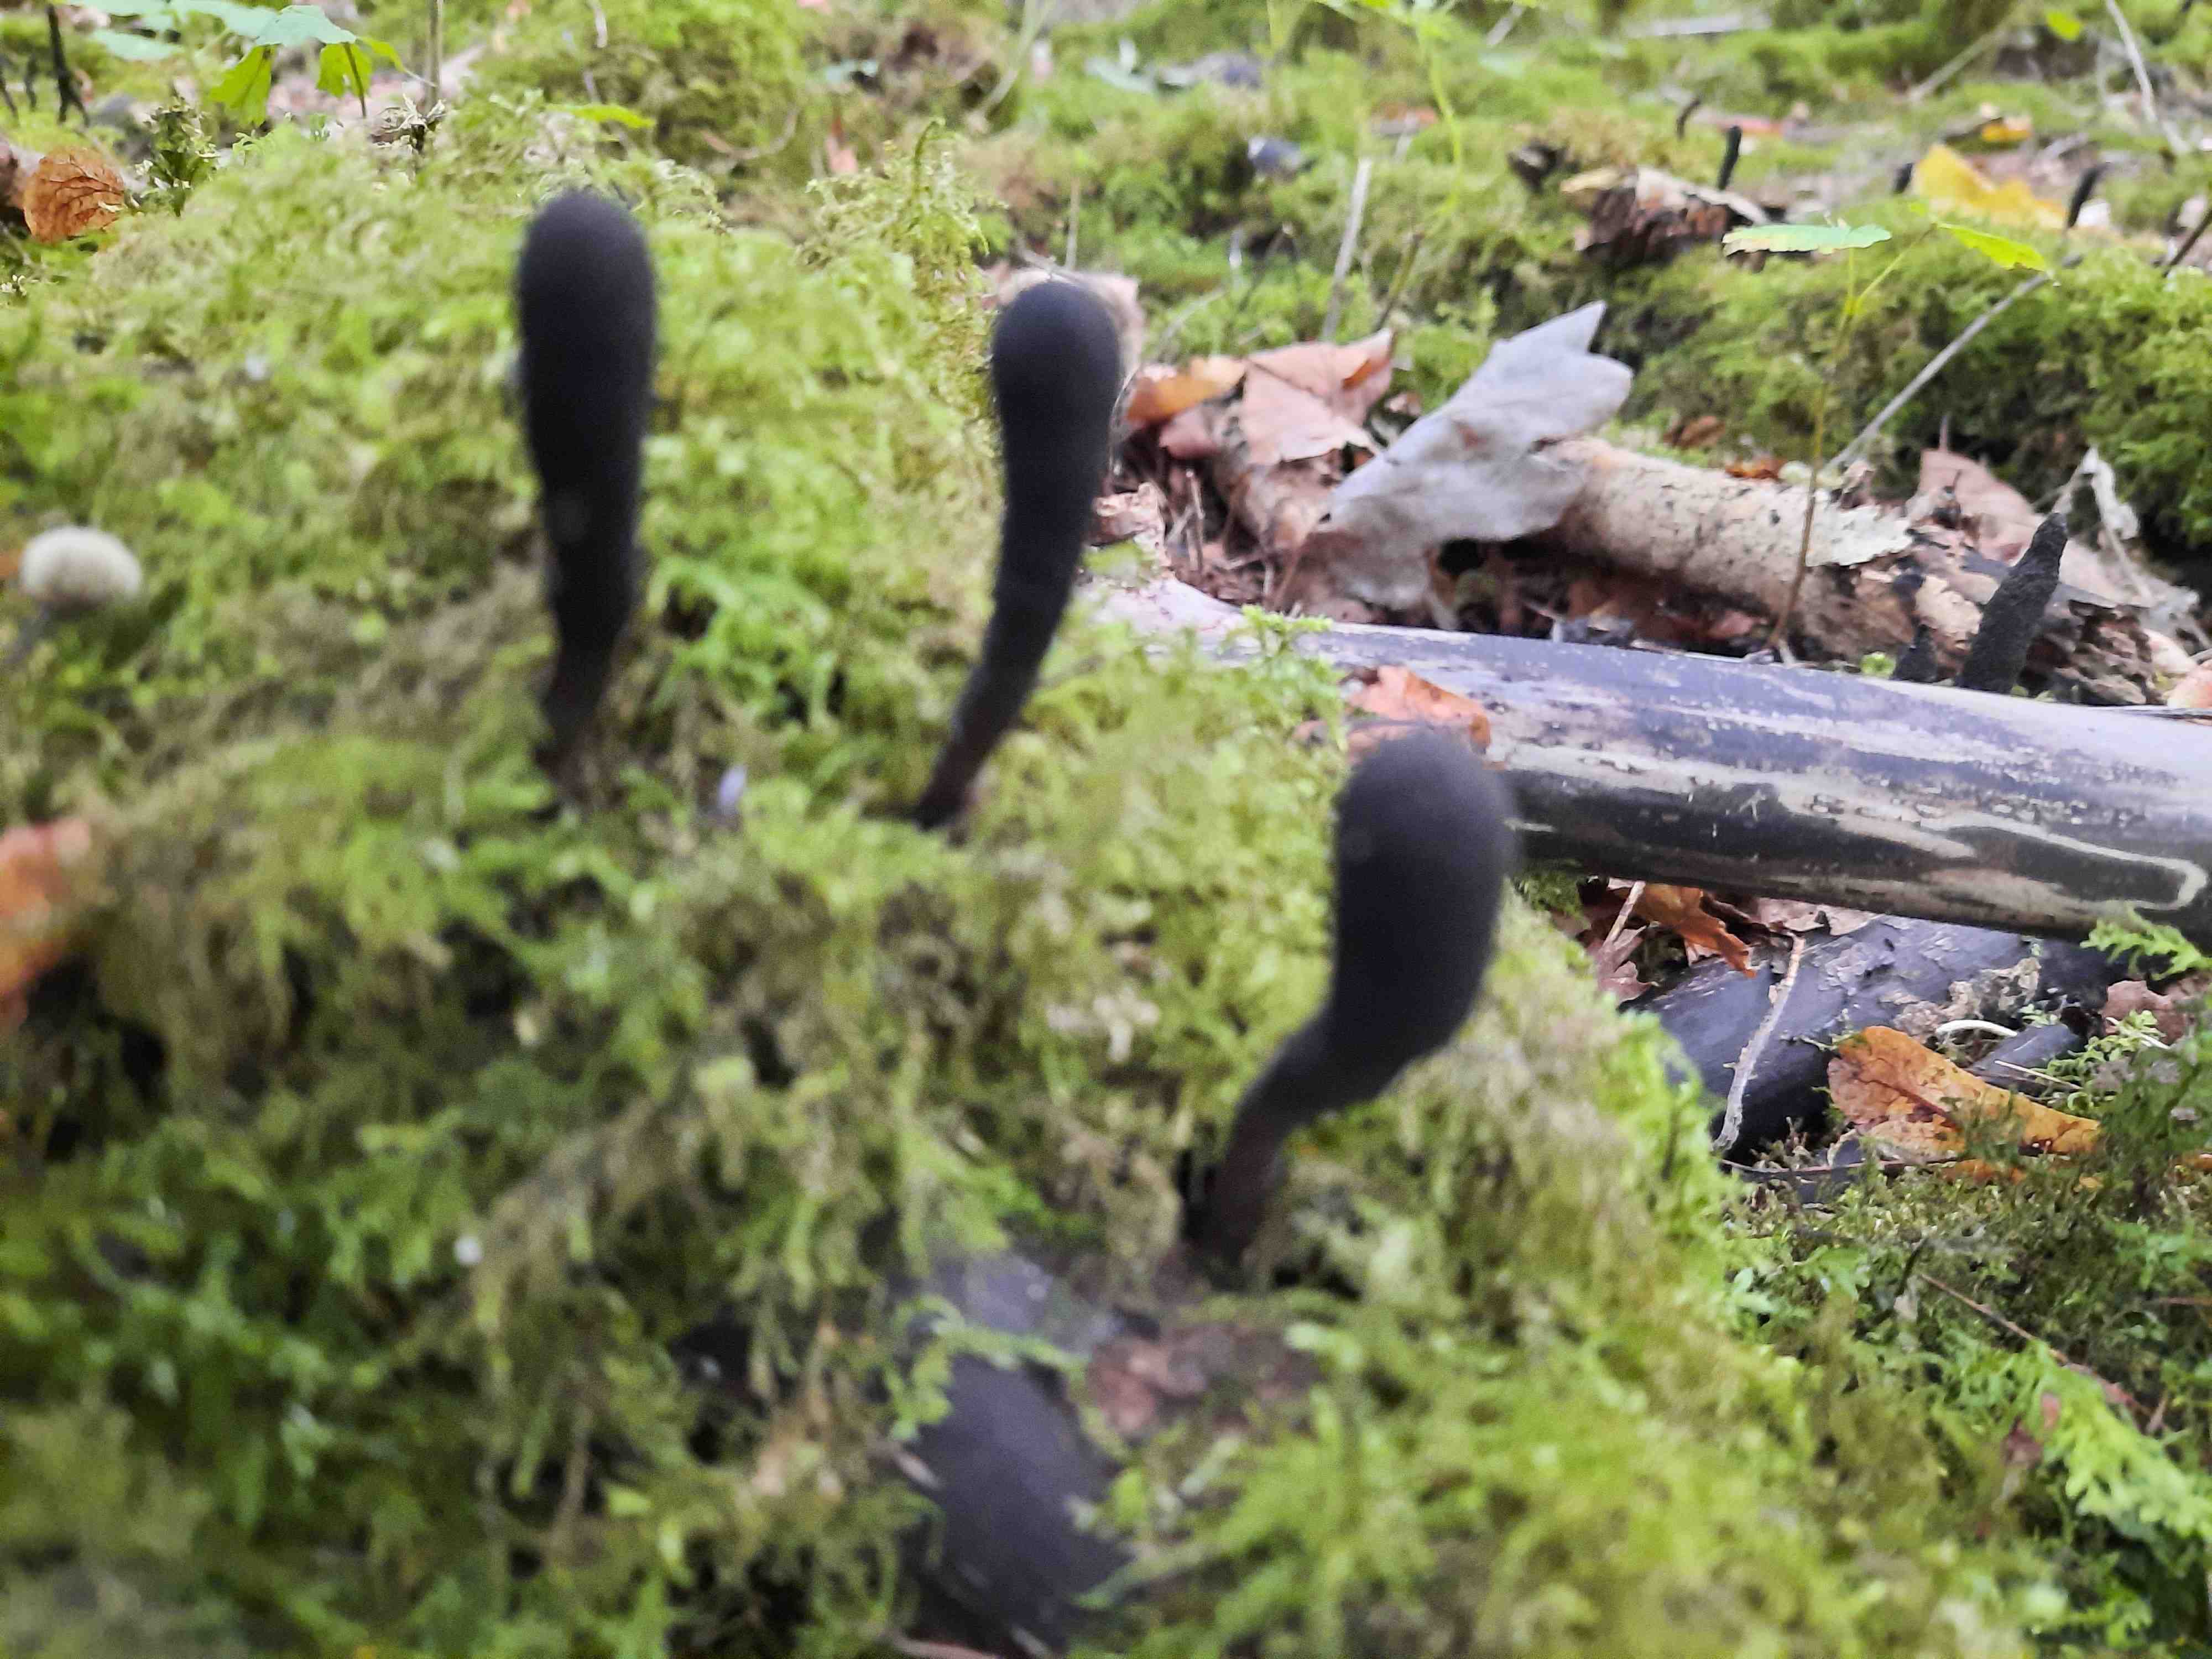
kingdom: Fungi
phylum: Ascomycota
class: Sordariomycetes
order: Xylariales
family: Xylariaceae
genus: Xylaria
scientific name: Xylaria longipes
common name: slank stødsvamp
